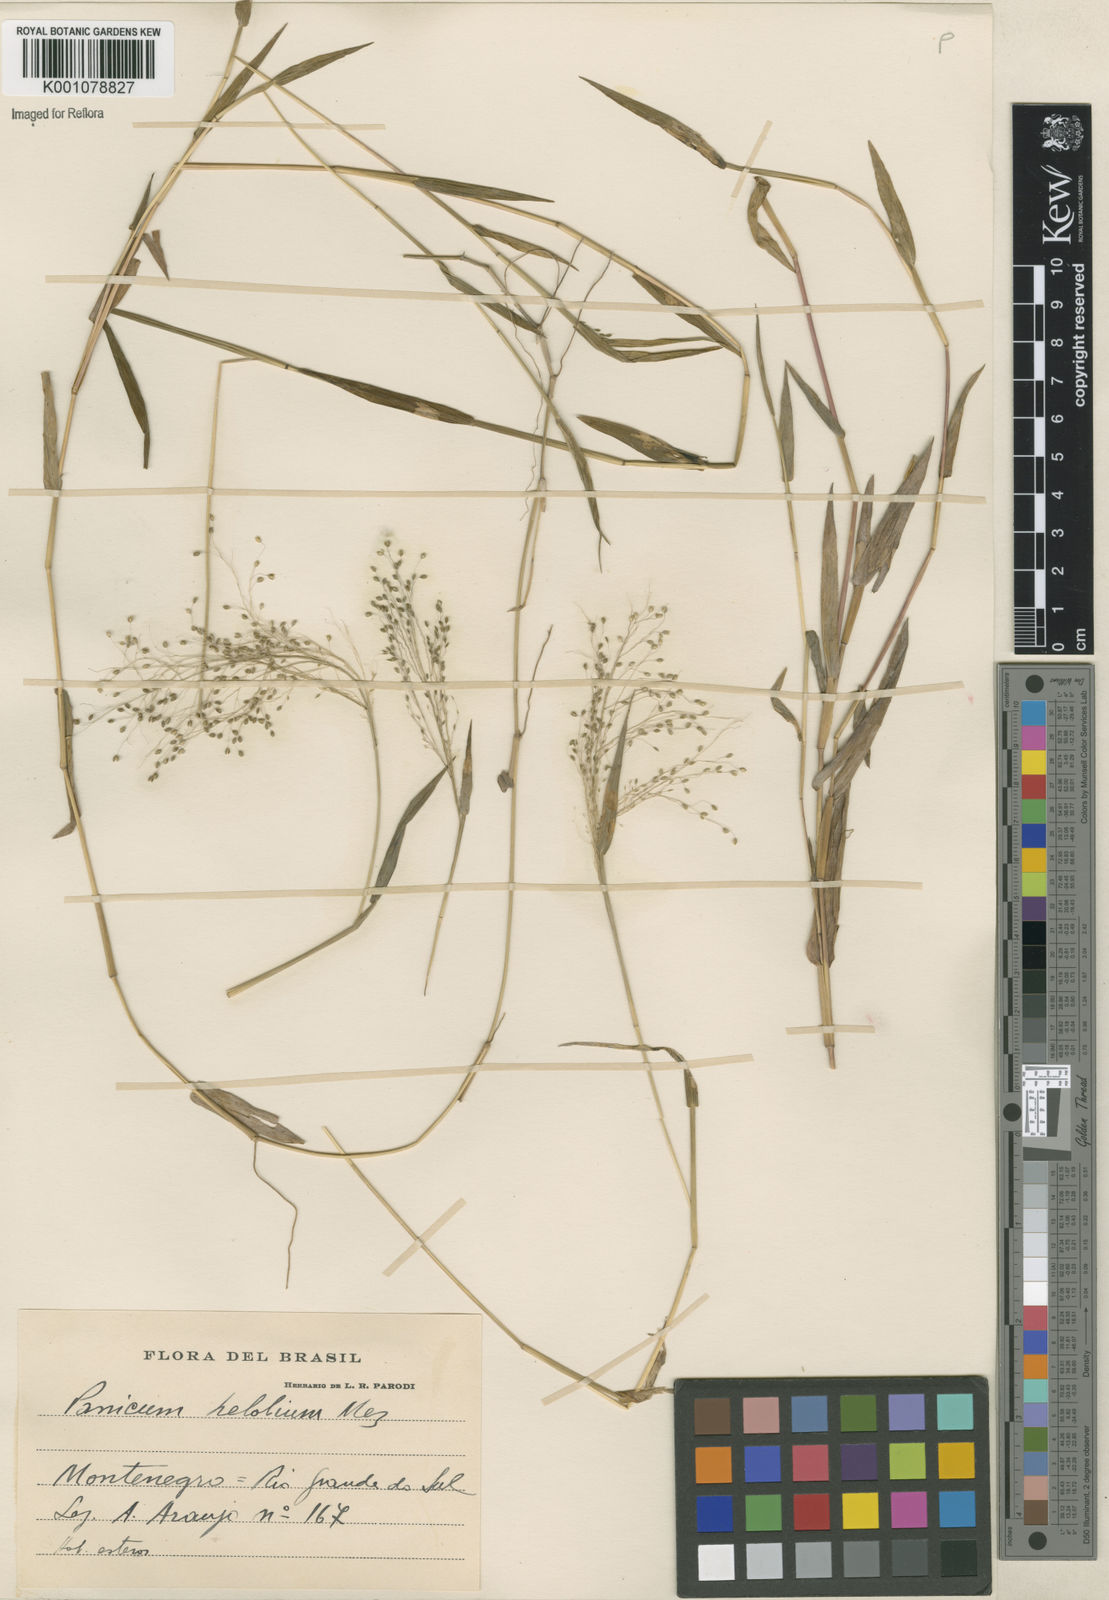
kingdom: Plantae
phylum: Tracheophyta
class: Liliopsida
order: Poales
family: Poaceae
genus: Trichanthecium
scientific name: Trichanthecium schwackeanum
